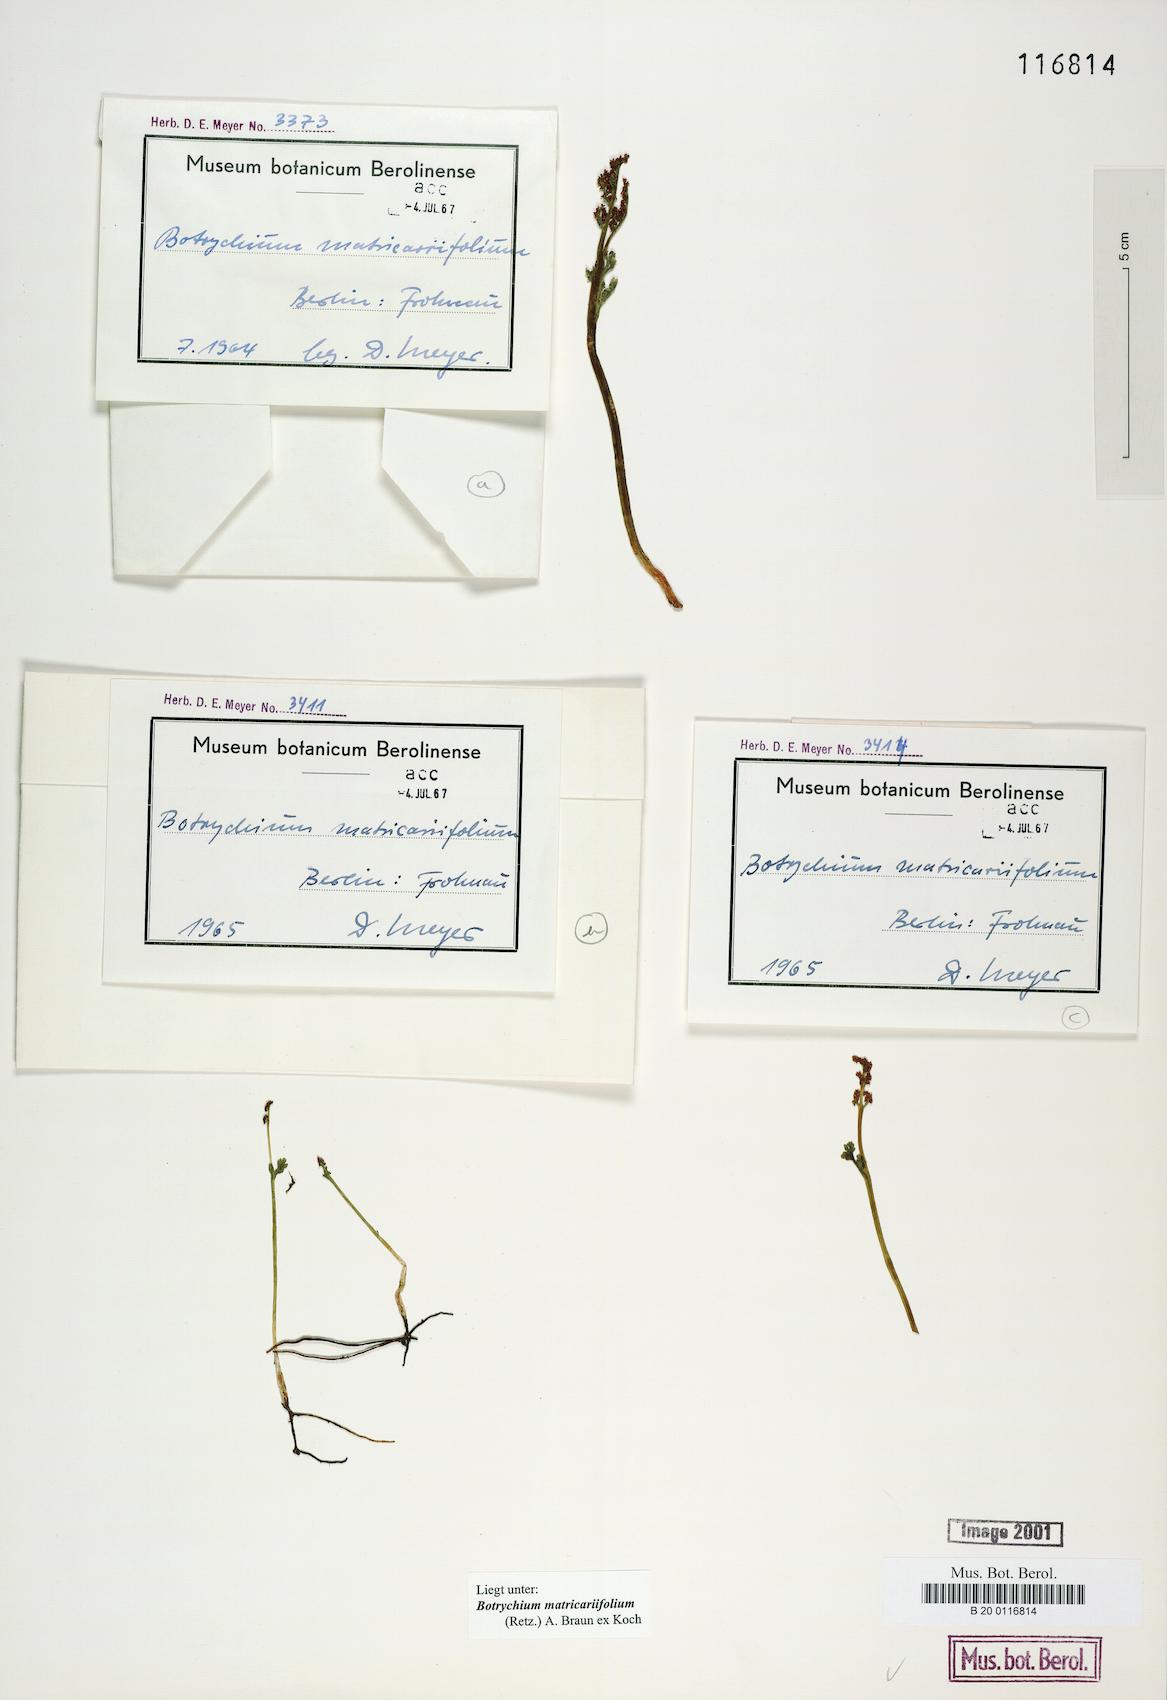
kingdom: Plantae
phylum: Tracheophyta
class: Polypodiopsida
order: Ophioglossales
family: Ophioglossaceae
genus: Botrychium
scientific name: Botrychium matricariifolium
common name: Branched moonwort
